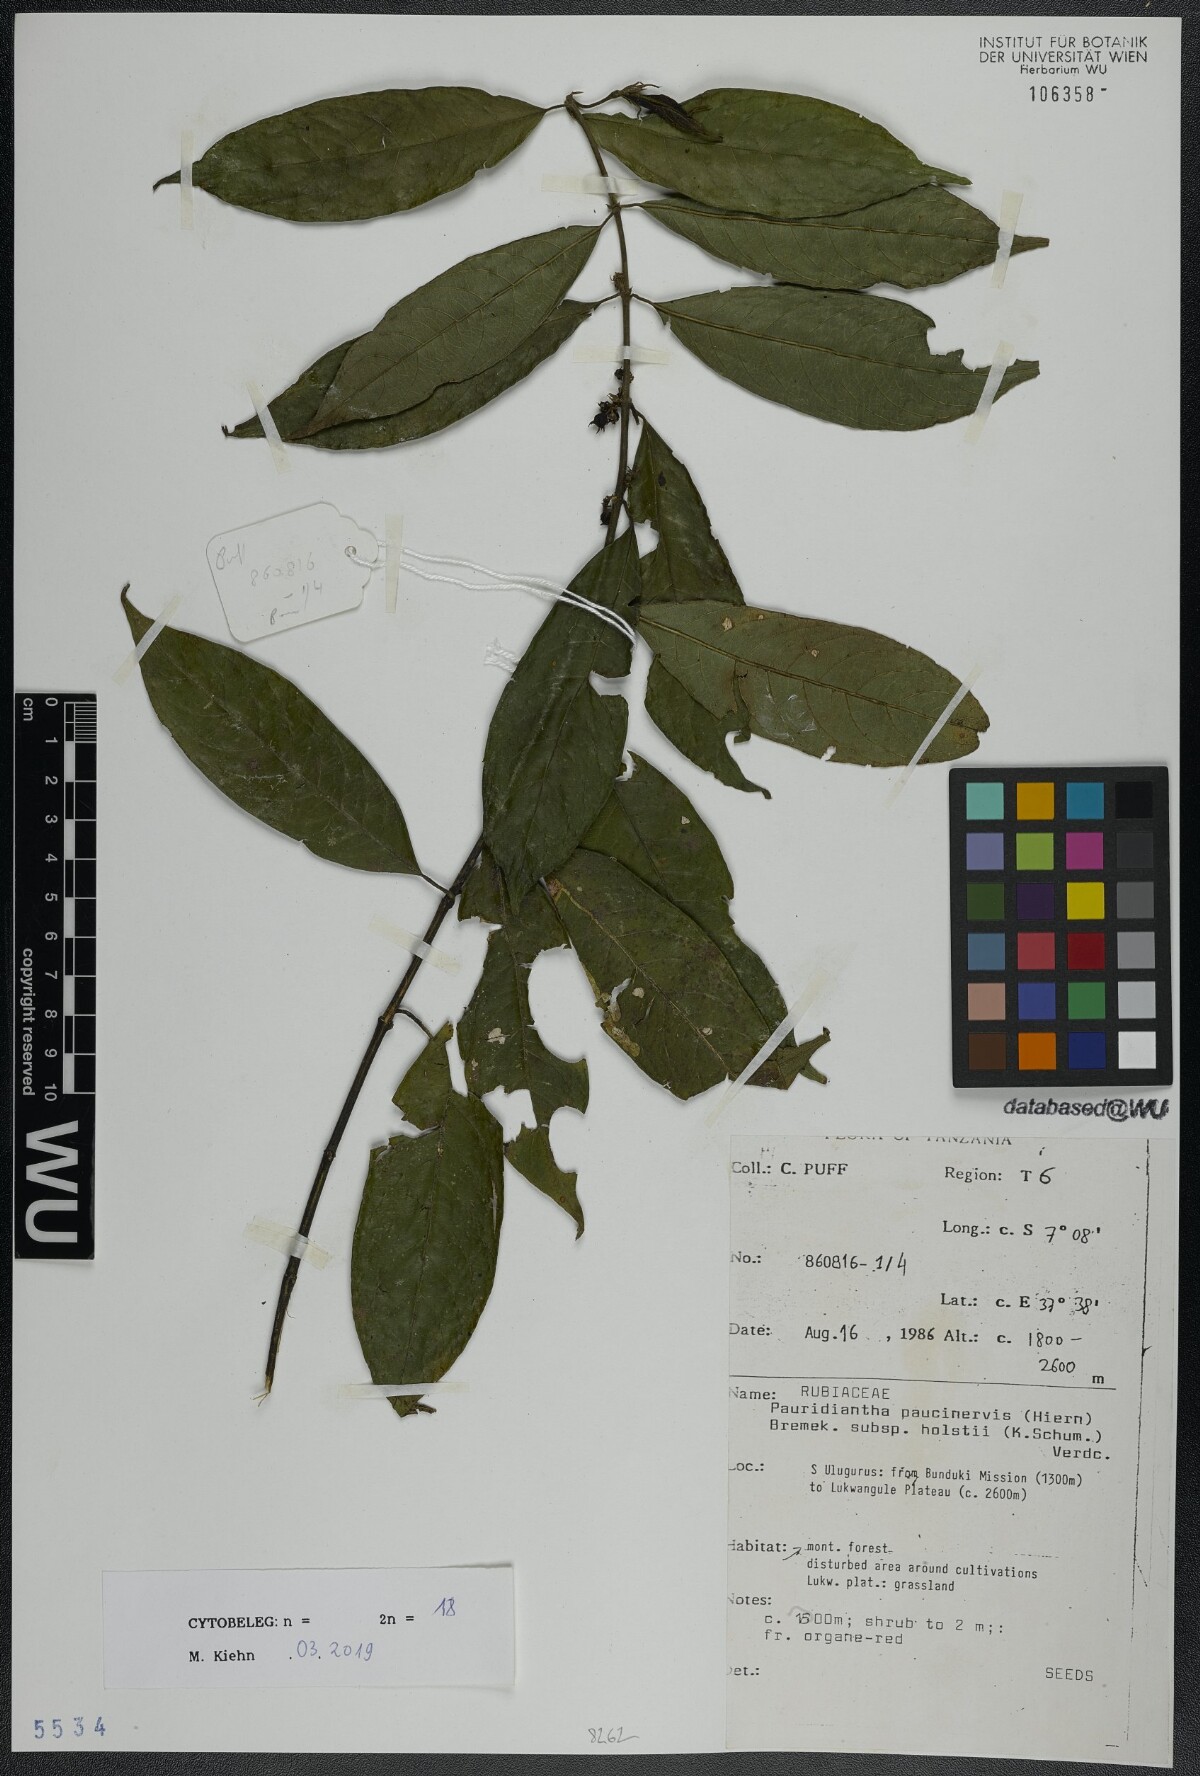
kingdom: Plantae
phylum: Tracheophyta
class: Magnoliopsida
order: Gentianales
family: Rubiaceae
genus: Pauridiantha
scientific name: Pauridiantha paucinervis
